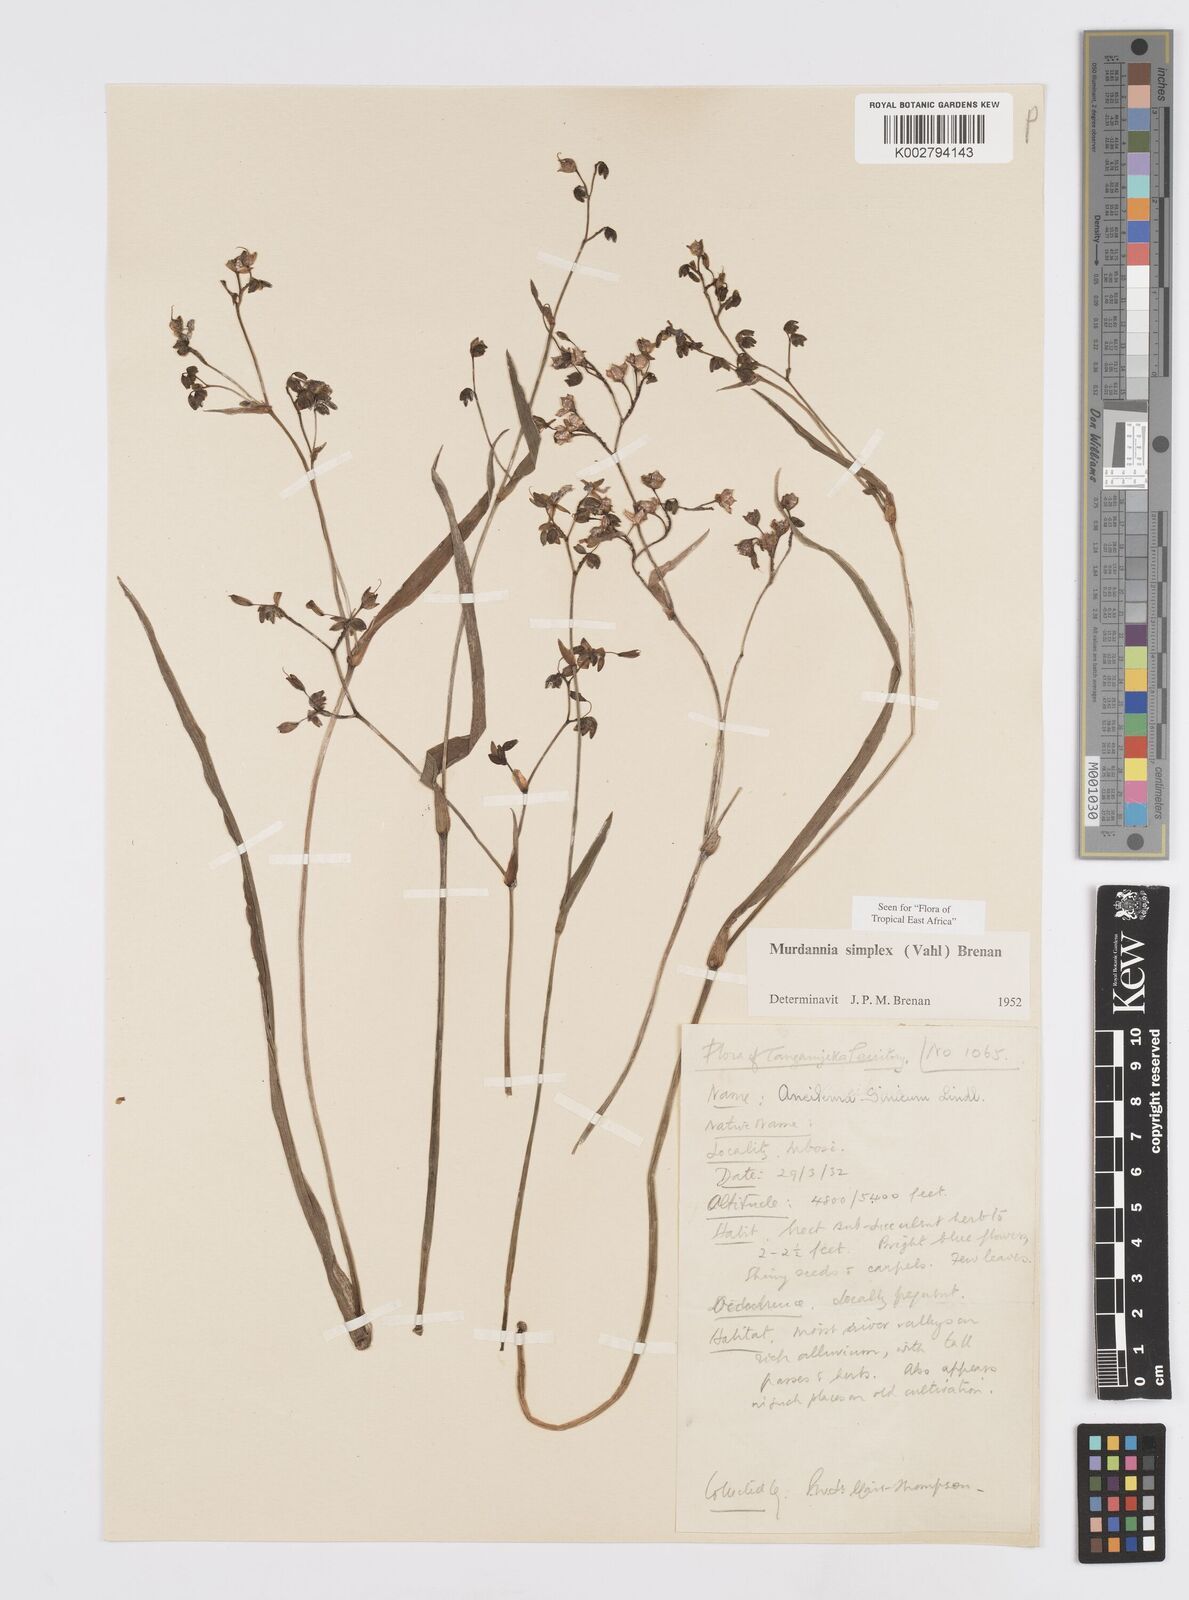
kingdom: Plantae
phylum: Tracheophyta
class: Liliopsida
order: Commelinales
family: Commelinaceae
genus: Murdannia
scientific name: Murdannia simplex
